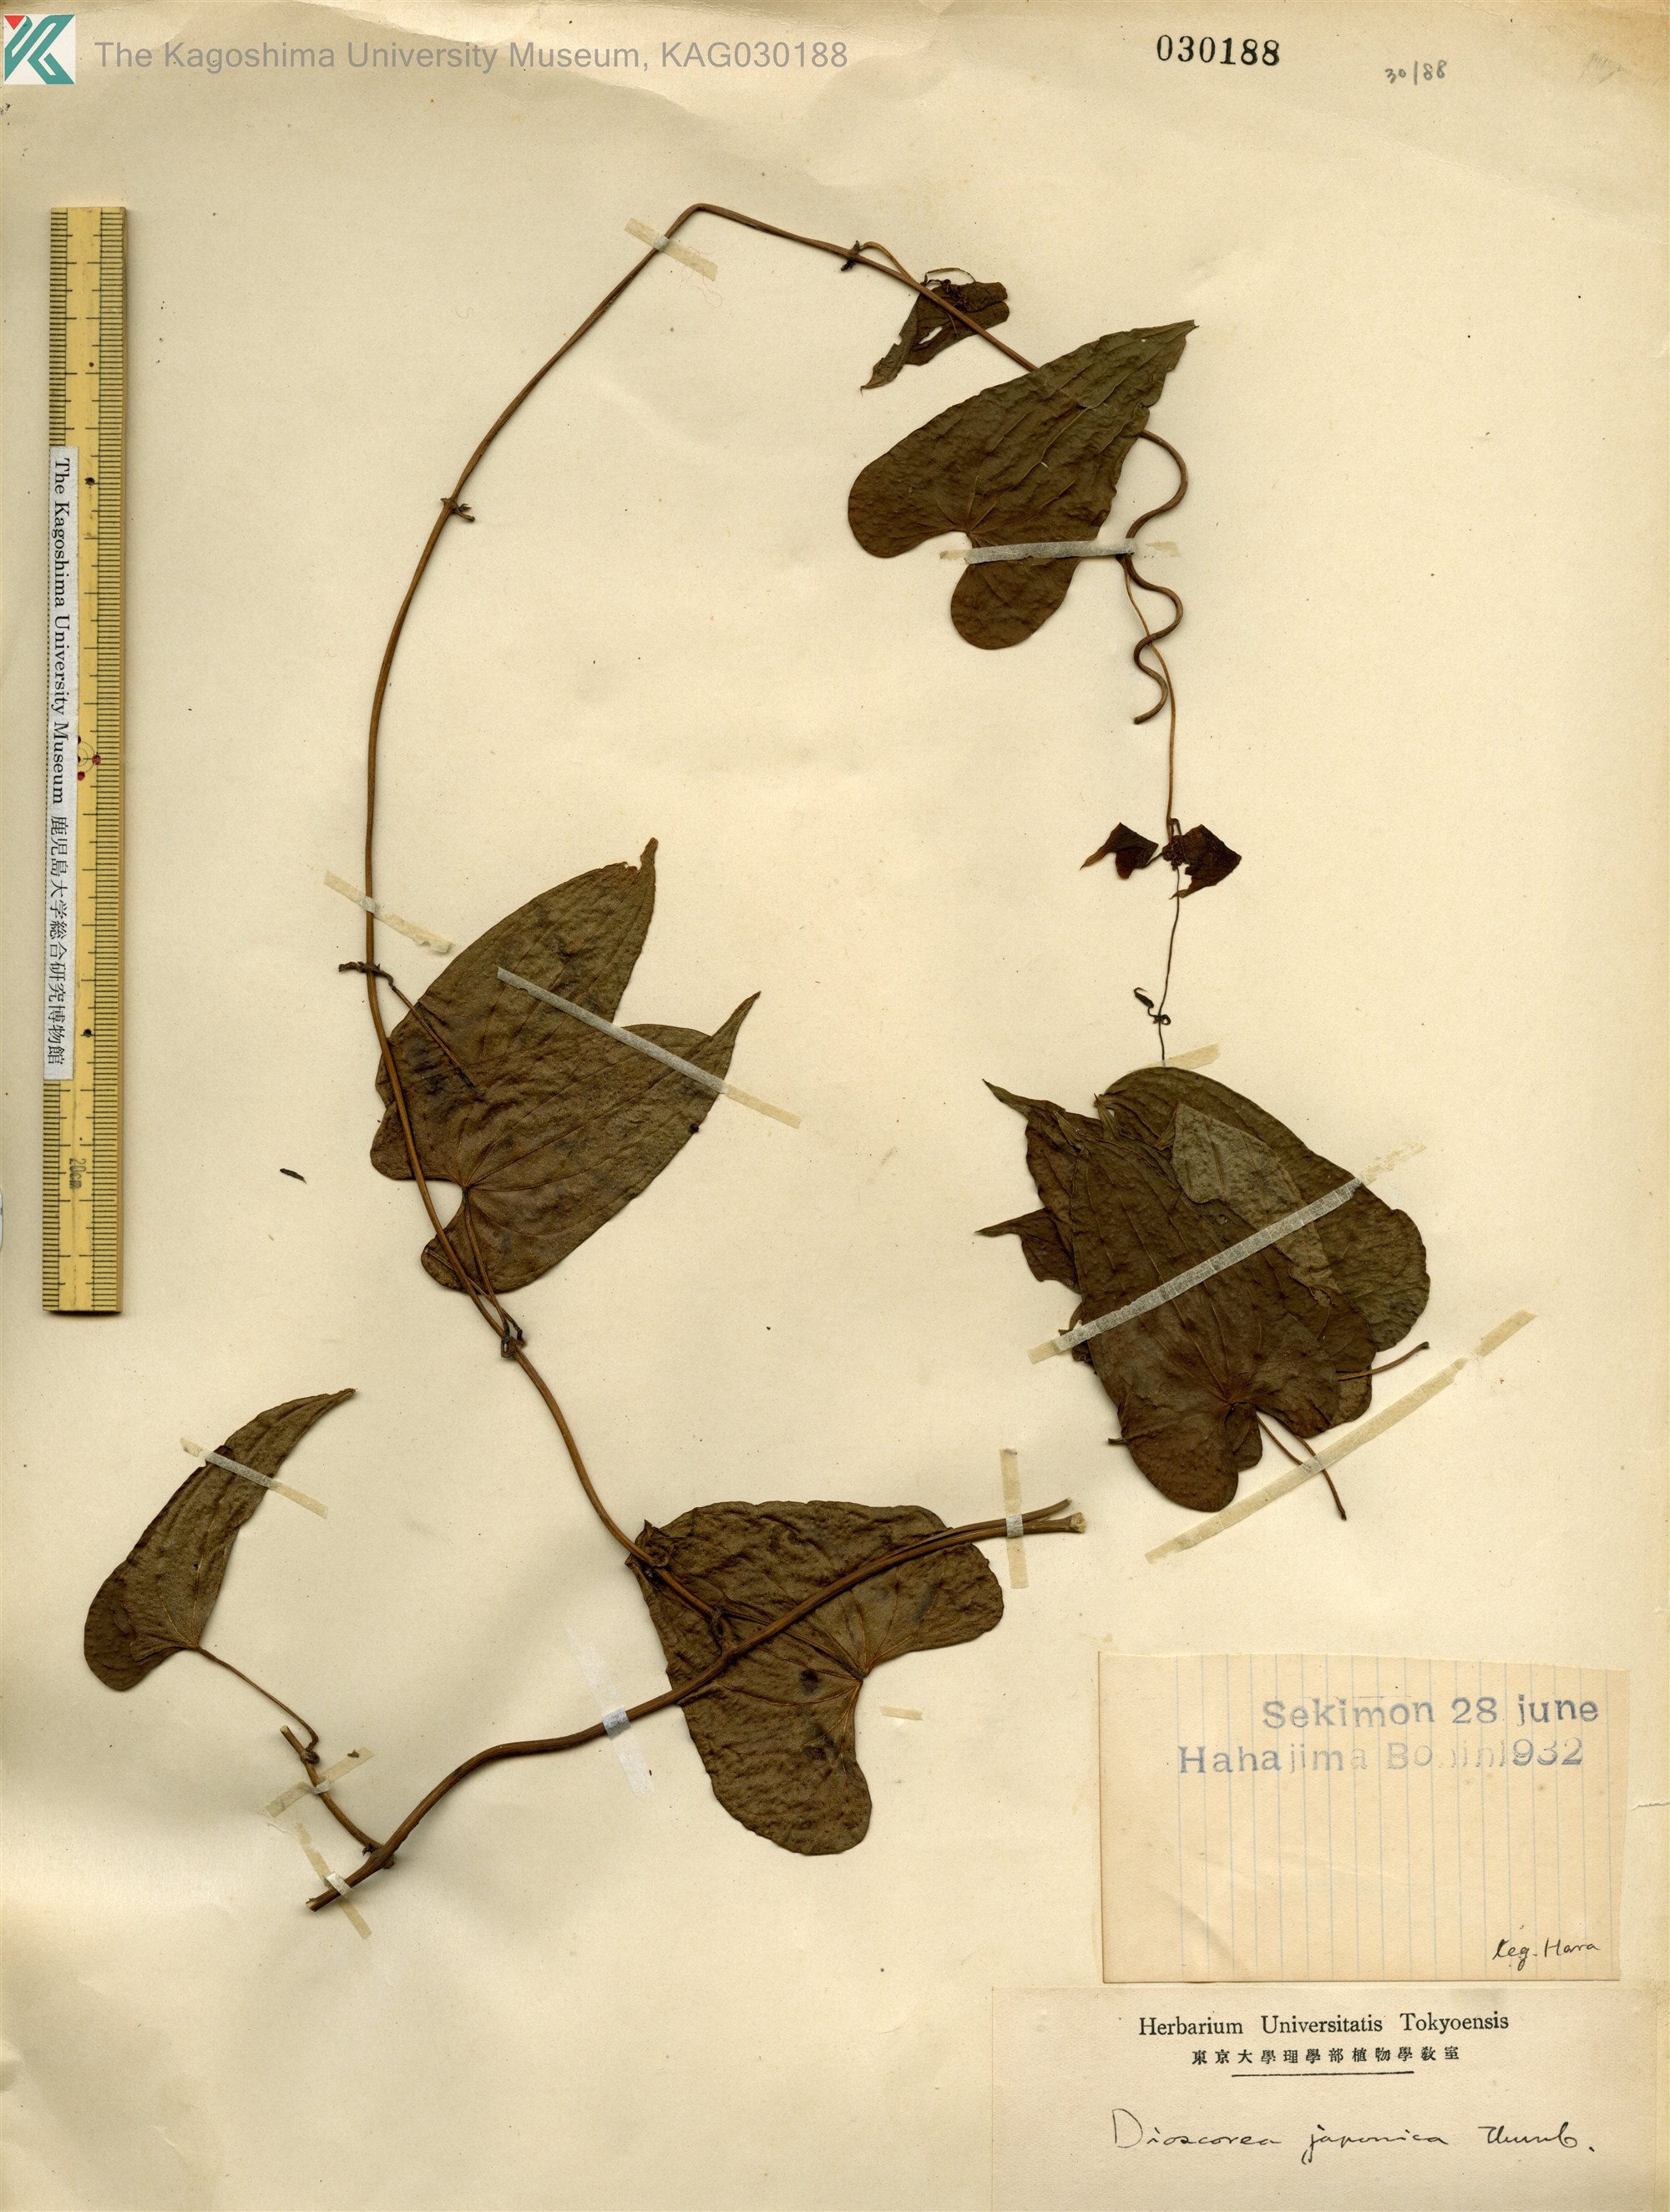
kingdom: Plantae
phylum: Tracheophyta
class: Liliopsida
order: Dioscoreales
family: Dioscoreaceae
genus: Dioscorea
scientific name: Dioscorea japonica
